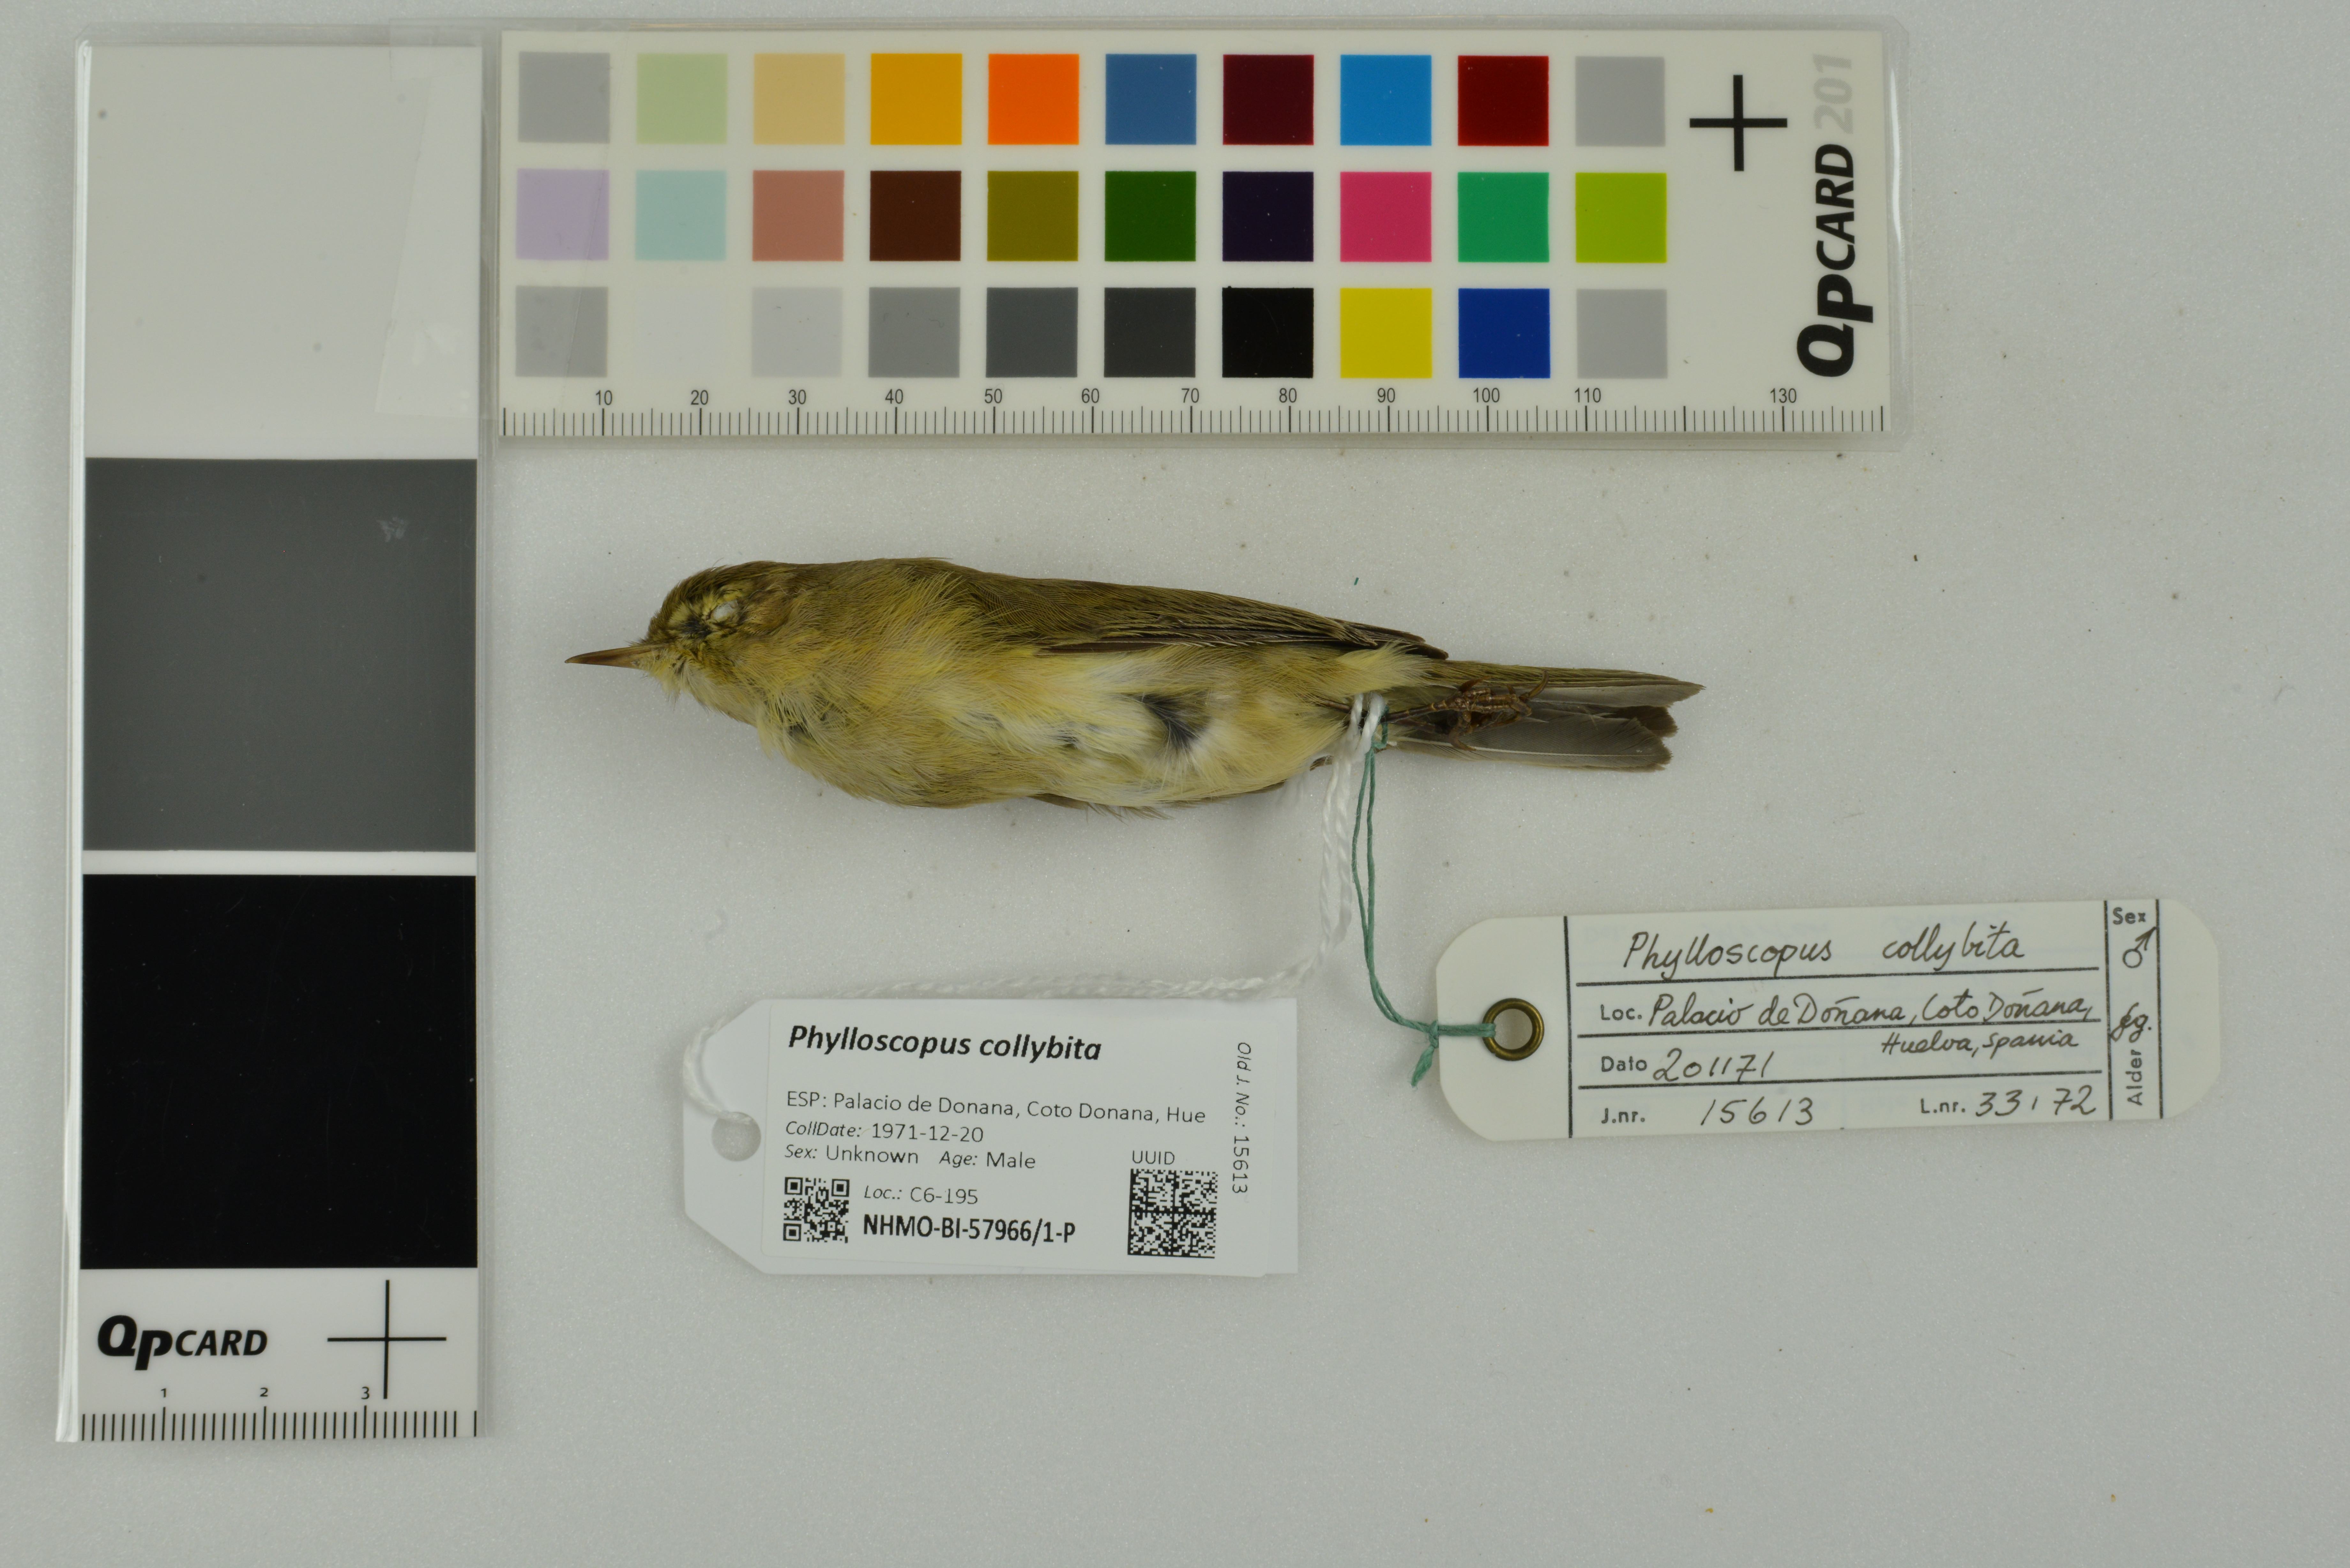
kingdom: Animalia
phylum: Chordata
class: Aves
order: Passeriformes
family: Phylloscopidae
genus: Phylloscopus
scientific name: Phylloscopus collybita
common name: Common chiffchaff
